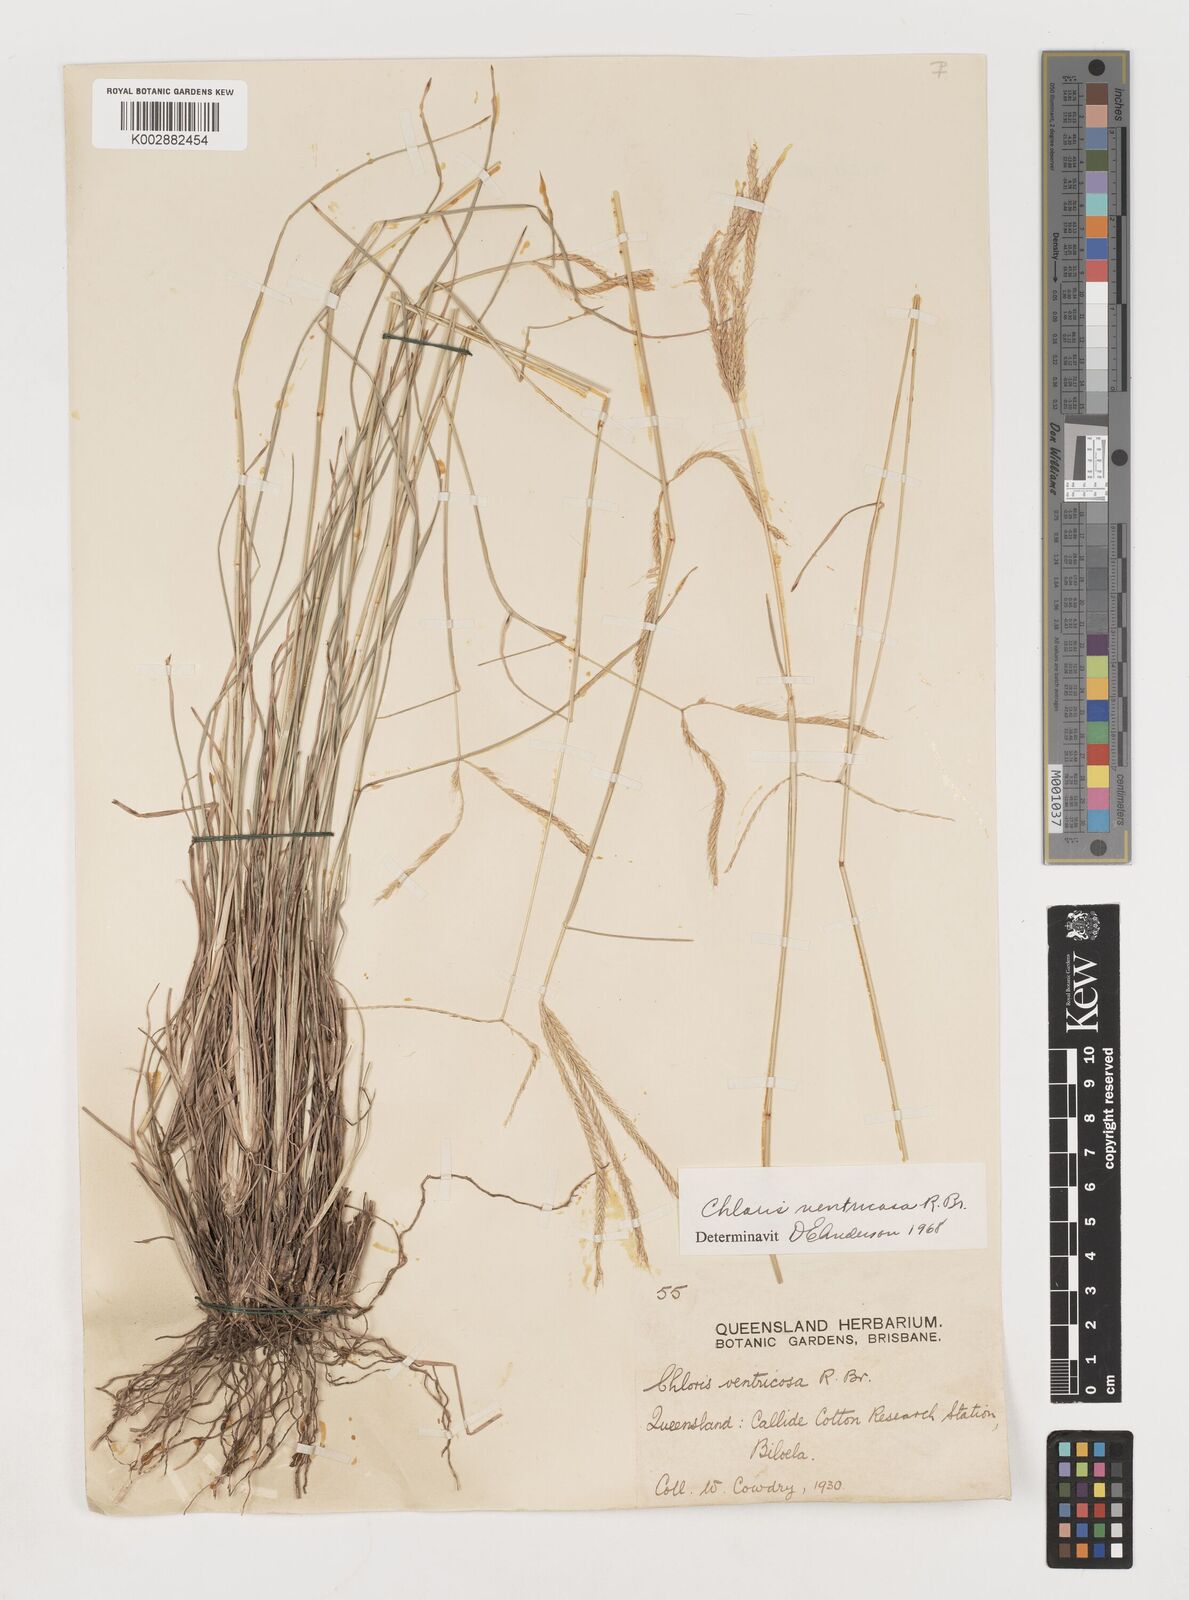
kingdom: Plantae
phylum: Tracheophyta
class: Liliopsida
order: Poales
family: Poaceae
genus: Chloris
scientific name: Chloris ventricosa
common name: Australian windmill grass
